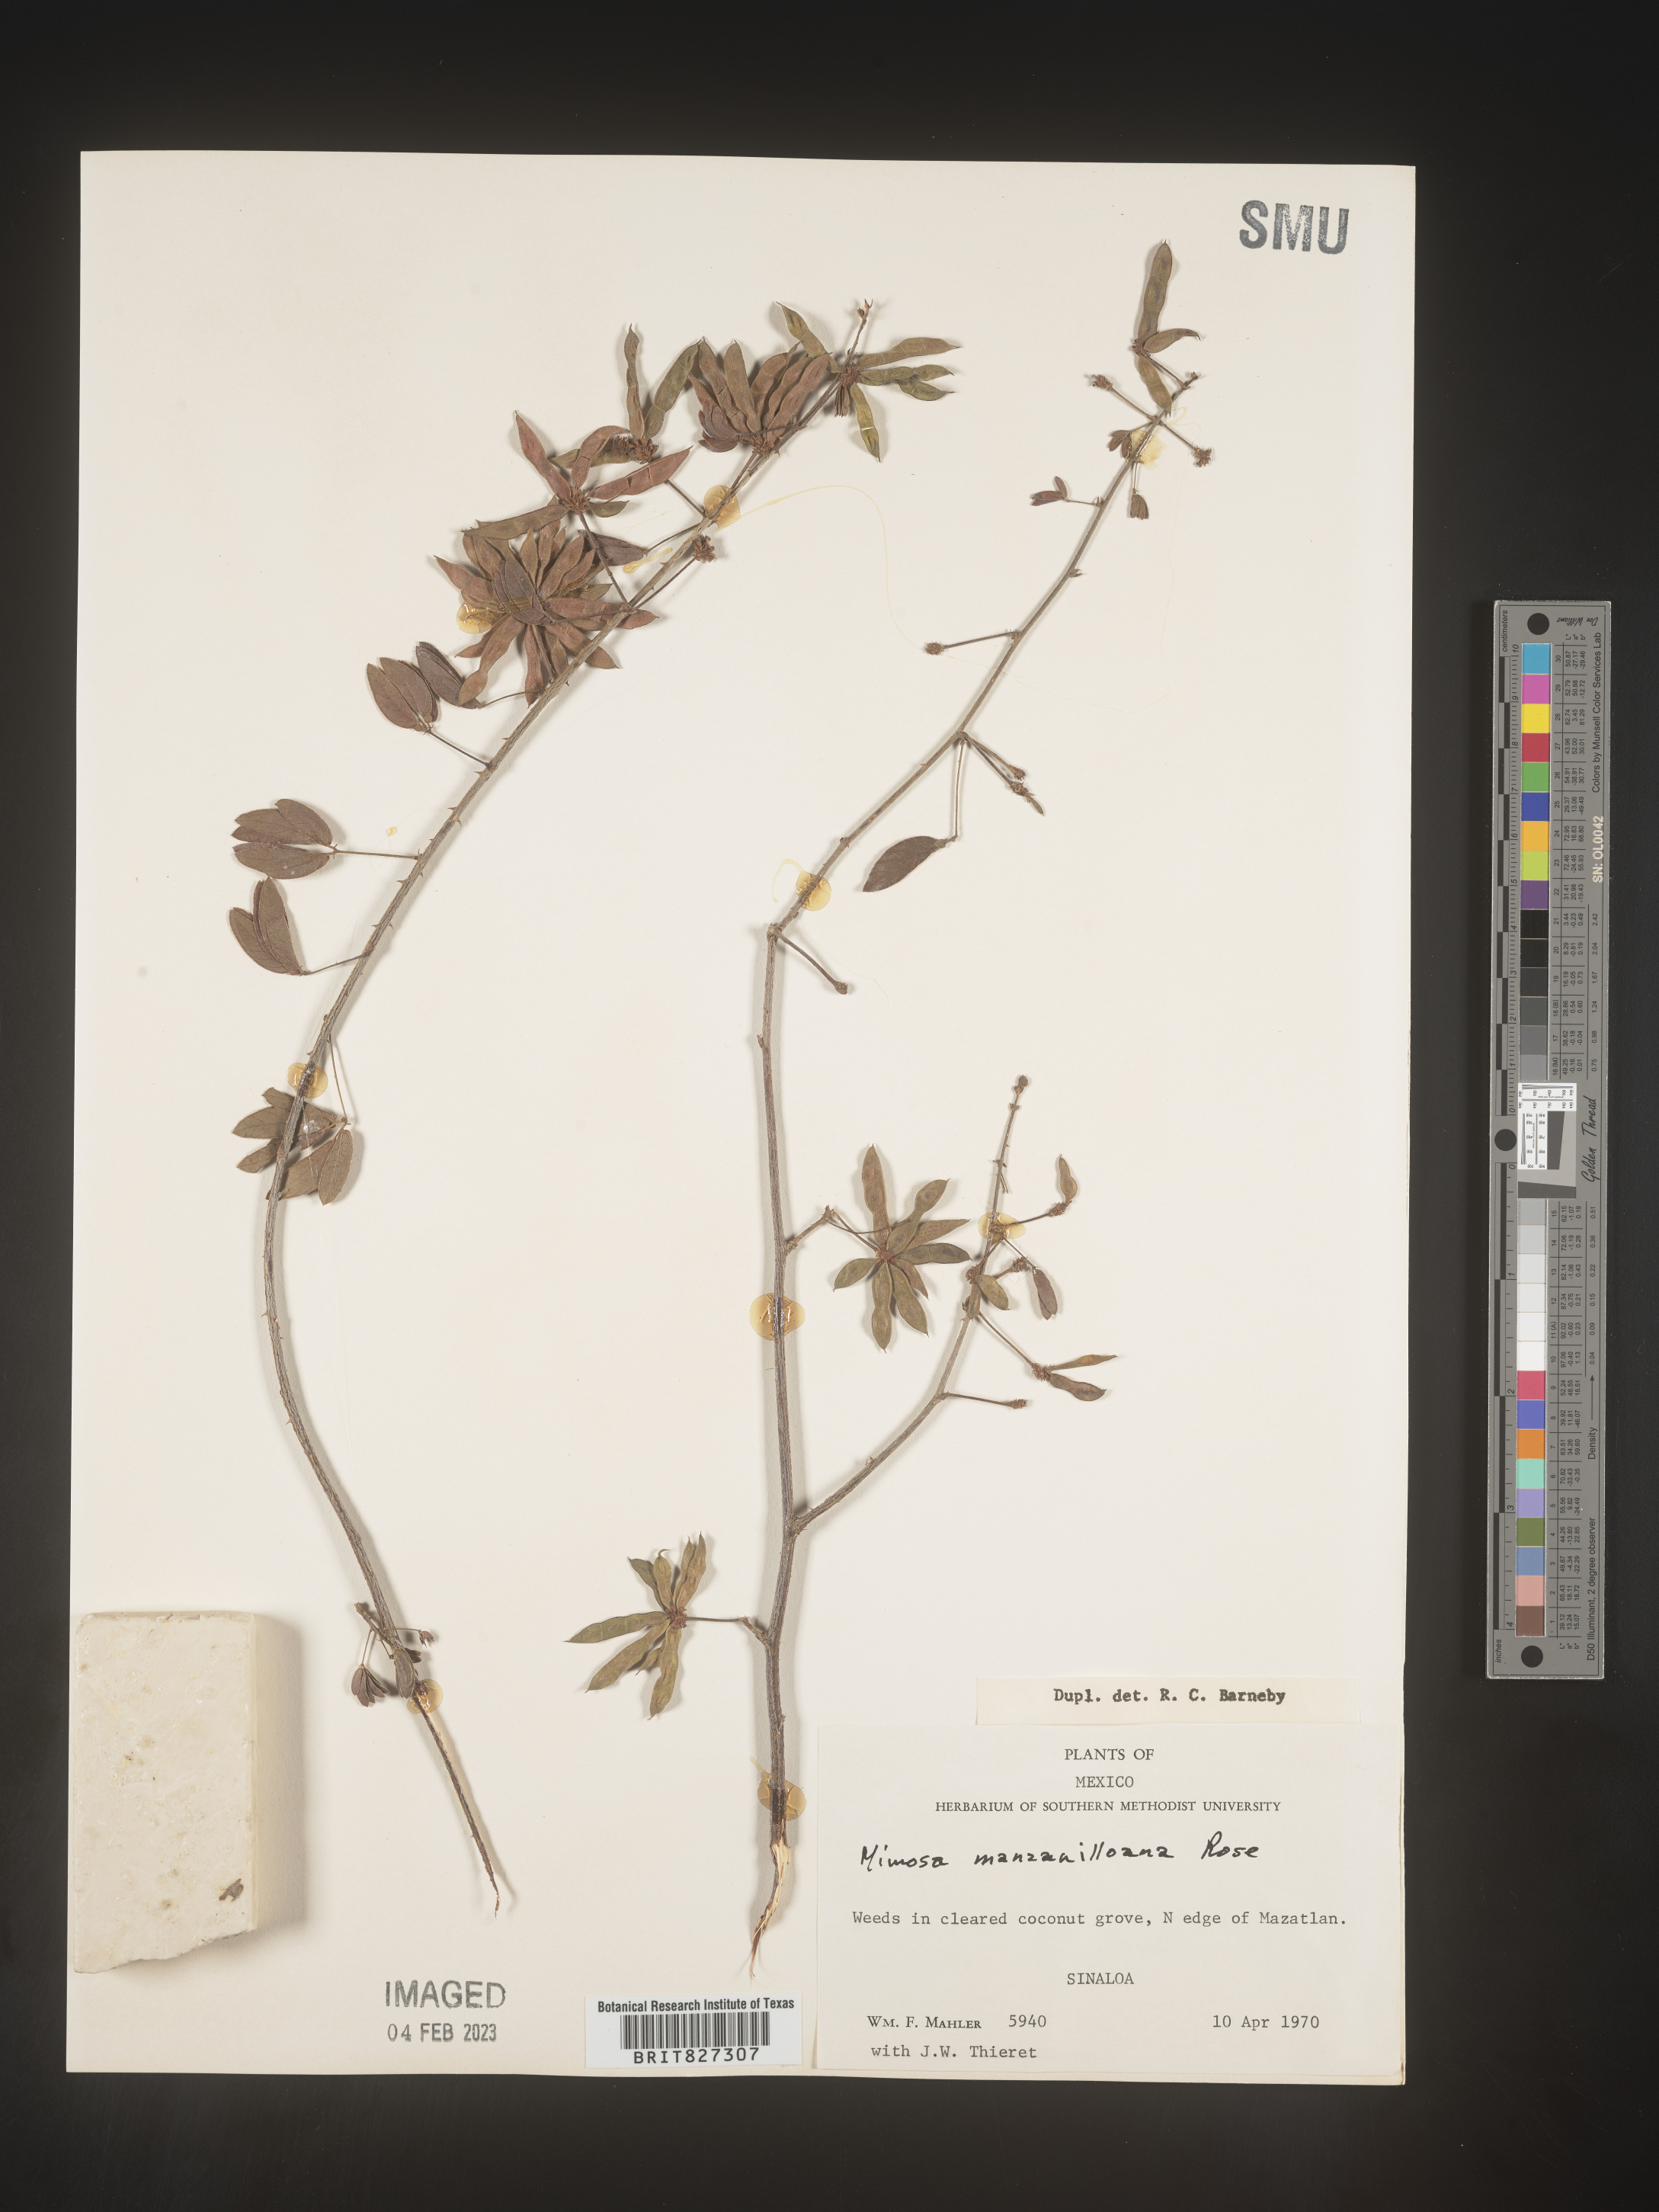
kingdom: Plantae
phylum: Tracheophyta
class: Magnoliopsida
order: Fabales
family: Fabaceae
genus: Mimosa
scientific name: Mimosa
